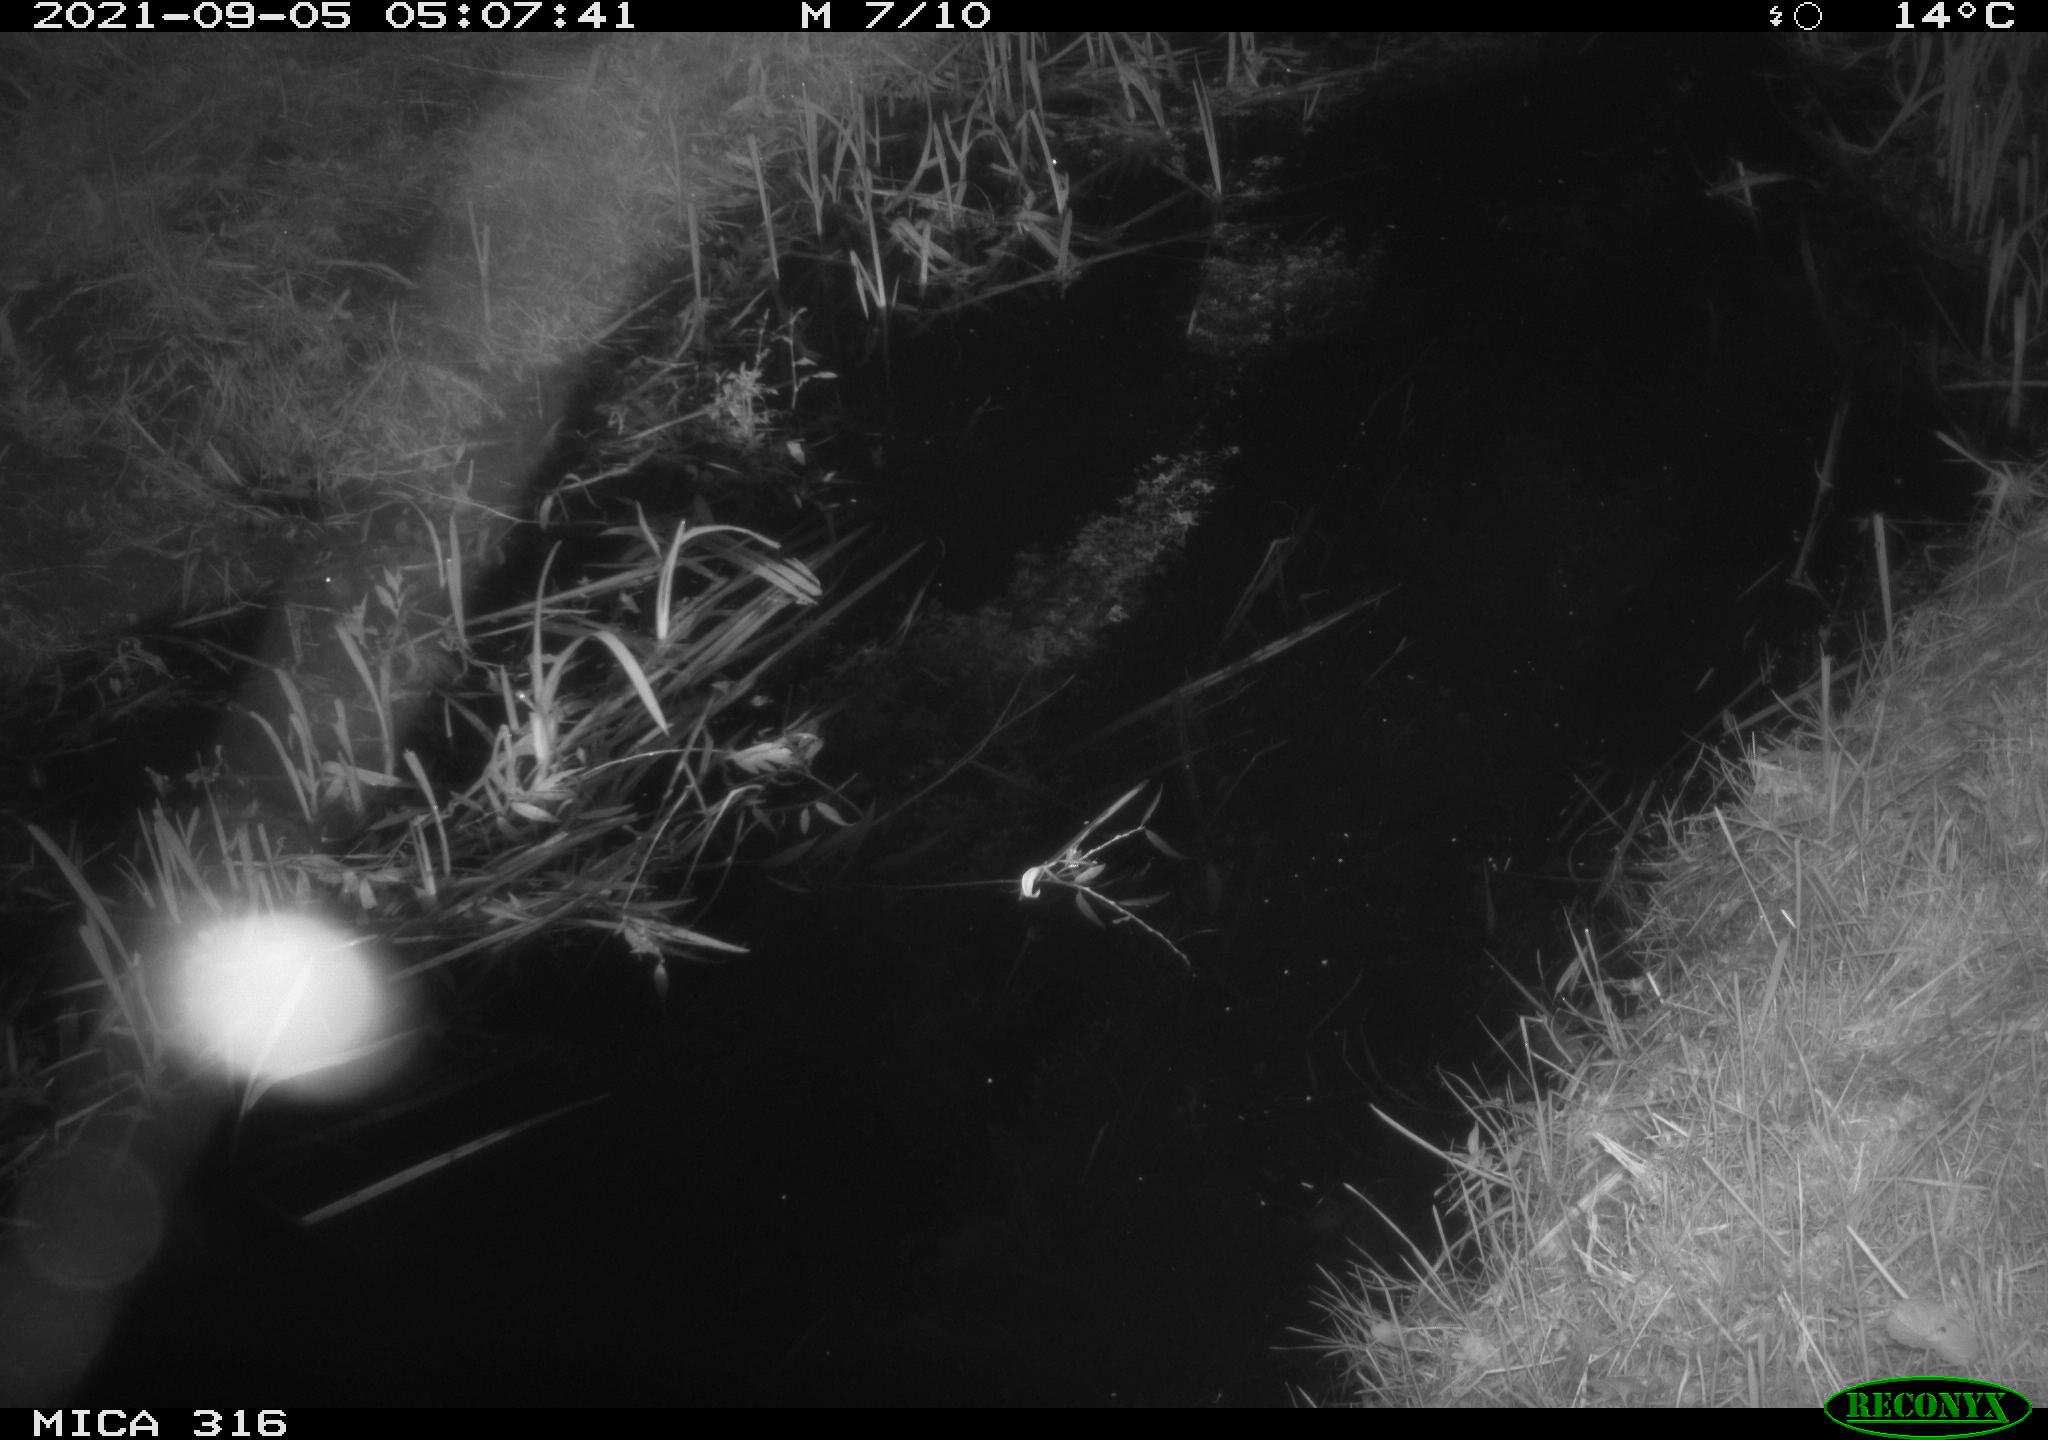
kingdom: Animalia
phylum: Chordata
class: Mammalia
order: Rodentia
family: Muridae
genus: Rattus
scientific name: Rattus norvegicus
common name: Brown rat
